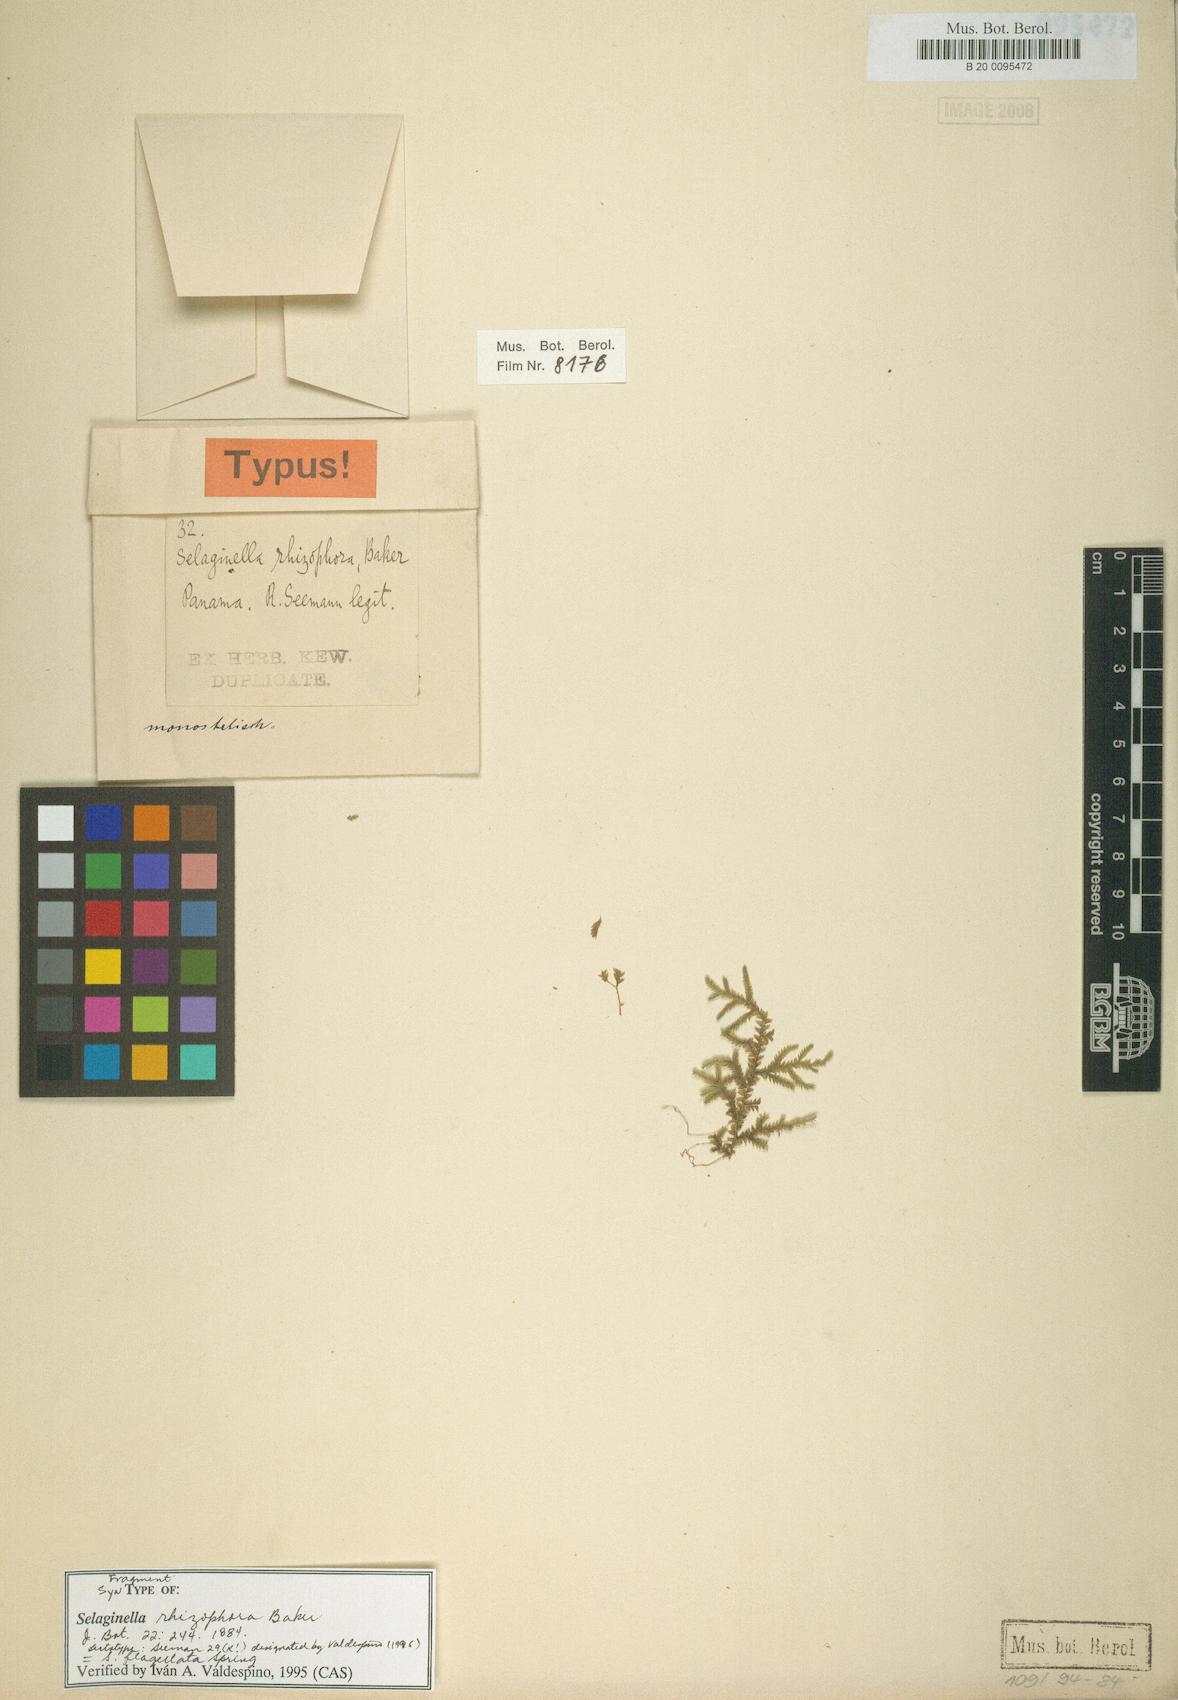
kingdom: Plantae
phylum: Tracheophyta
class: Lycopodiopsida
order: Selaginellales
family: Selaginellaceae
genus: Selaginella
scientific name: Selaginella flagellata
